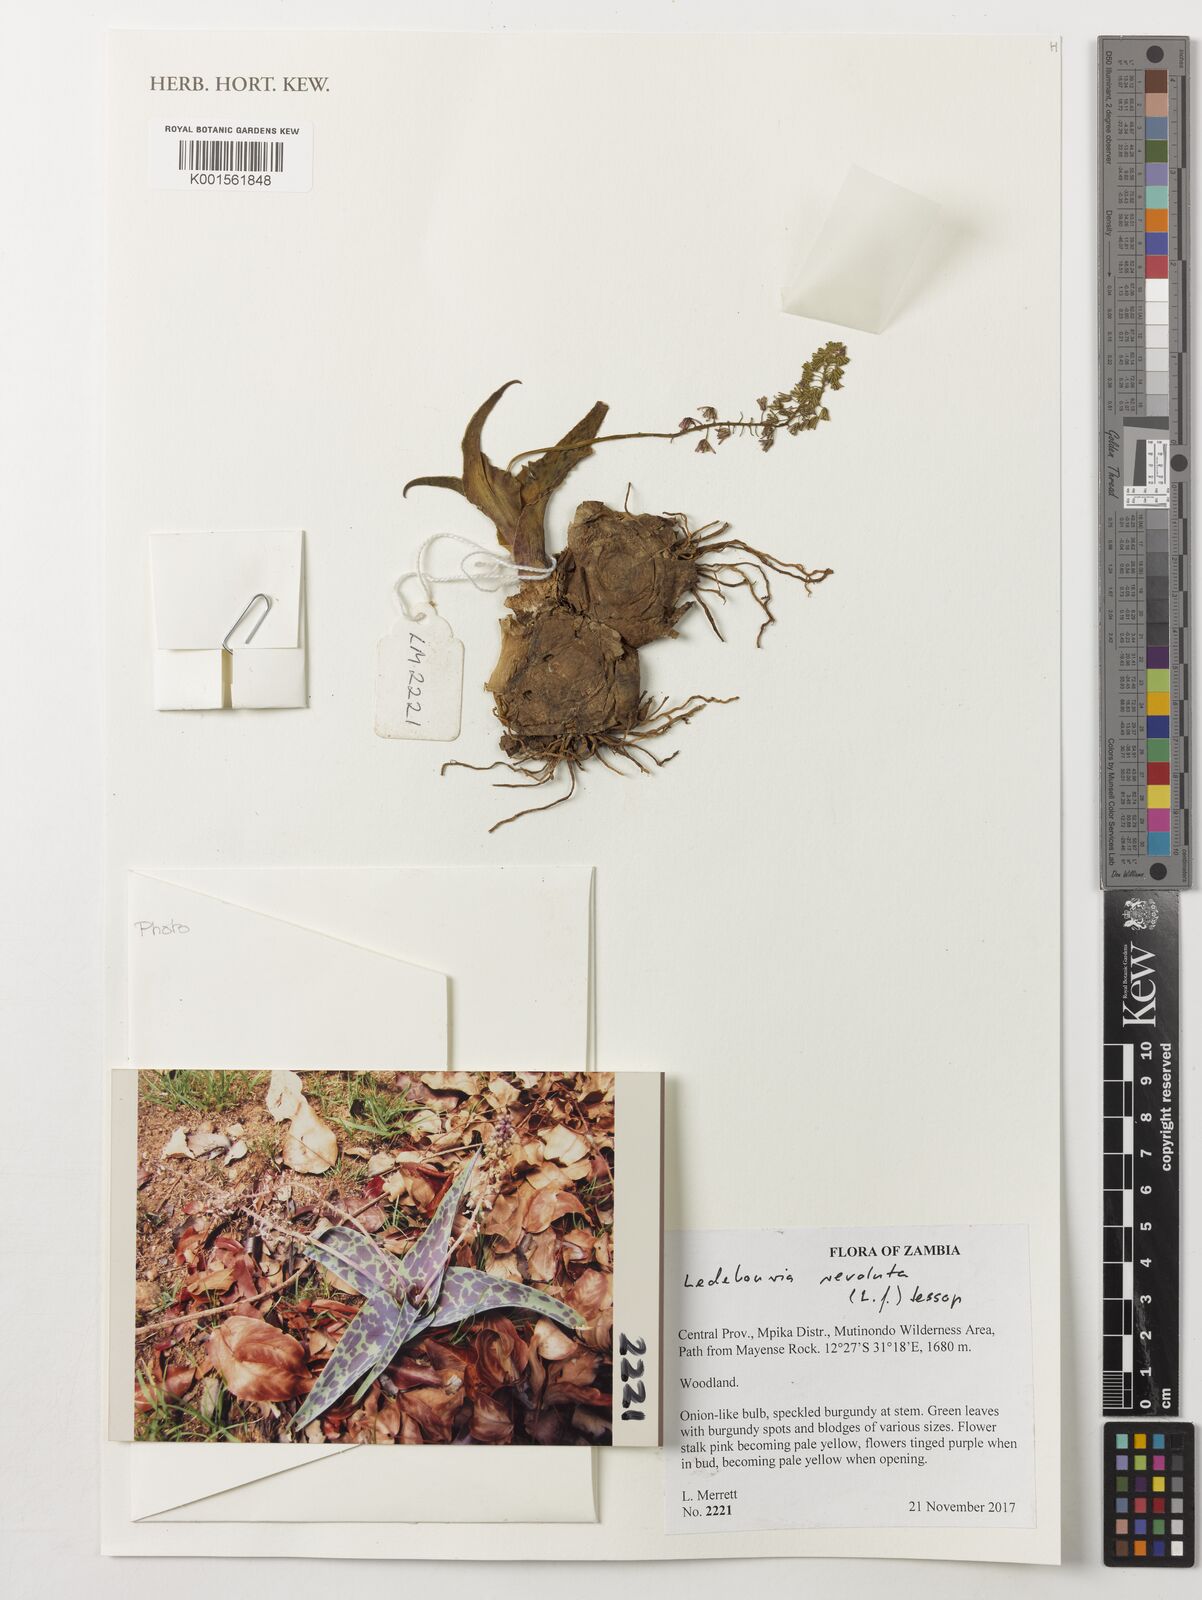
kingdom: Plantae
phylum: Tracheophyta
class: Liliopsida
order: Asparagales
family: Asparagaceae
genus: Ledebouria
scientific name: Ledebouria revoluta
